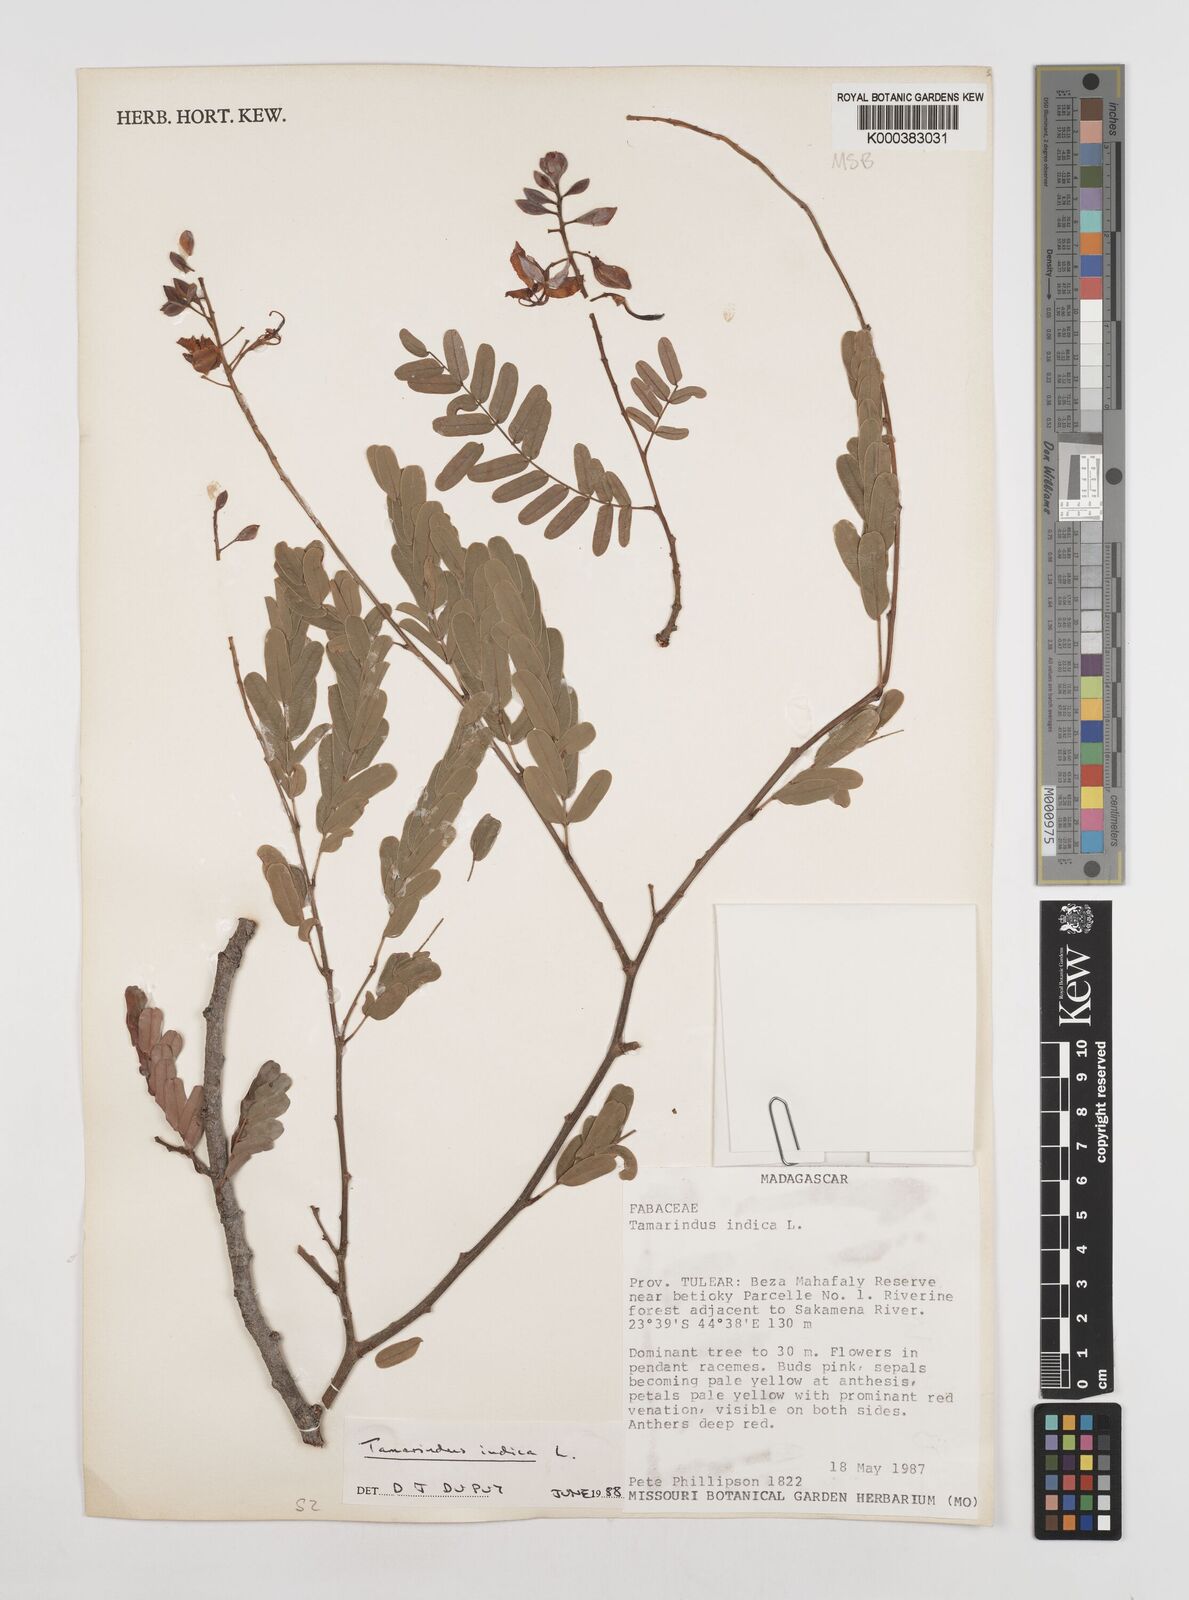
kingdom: Plantae
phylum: Tracheophyta
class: Magnoliopsida
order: Fabales
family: Fabaceae
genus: Tamarindus
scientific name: Tamarindus indica
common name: Tamarind
